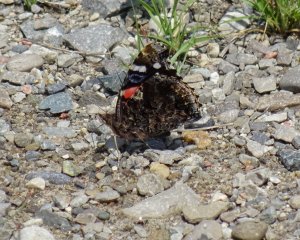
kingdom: Animalia
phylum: Arthropoda
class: Insecta
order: Lepidoptera
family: Nymphalidae
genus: Vanessa
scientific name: Vanessa atalanta
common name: Red Admiral
